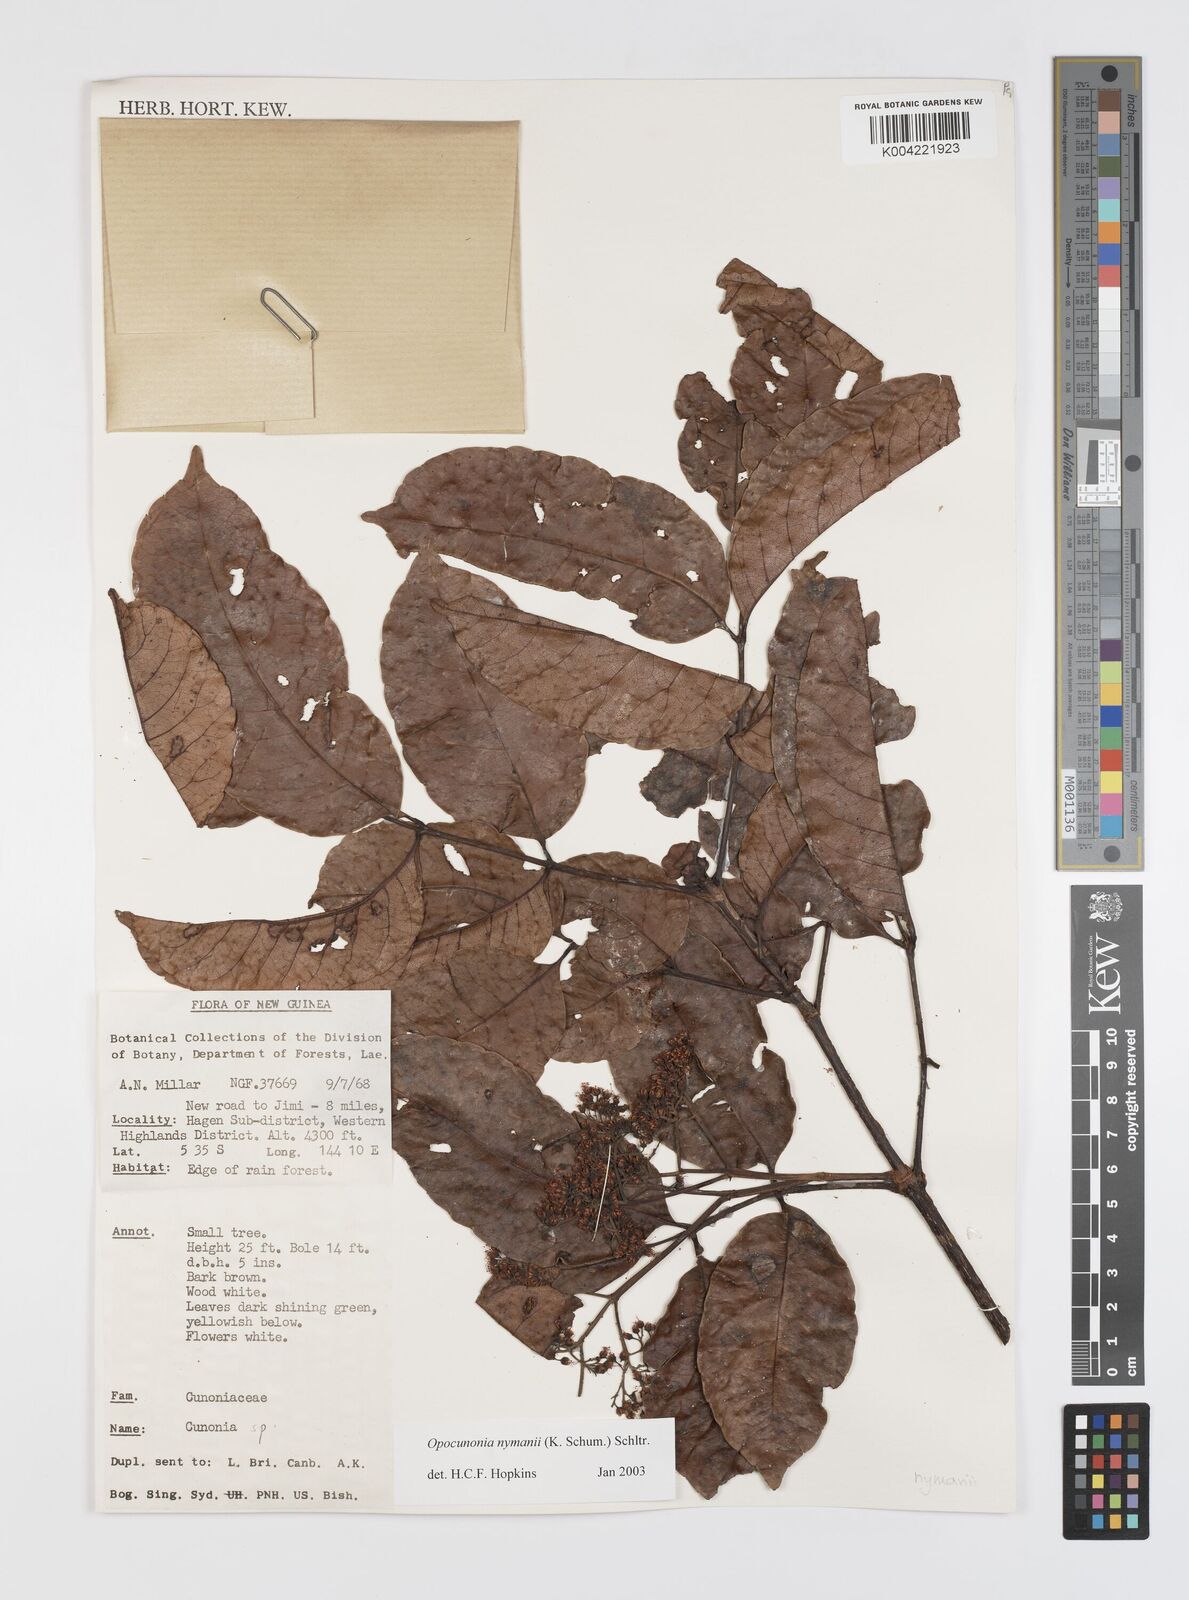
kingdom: Plantae
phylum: Tracheophyta
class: Magnoliopsida
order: Oxalidales
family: Cunoniaceae
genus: Opocunonia
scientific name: Opocunonia nymanii
